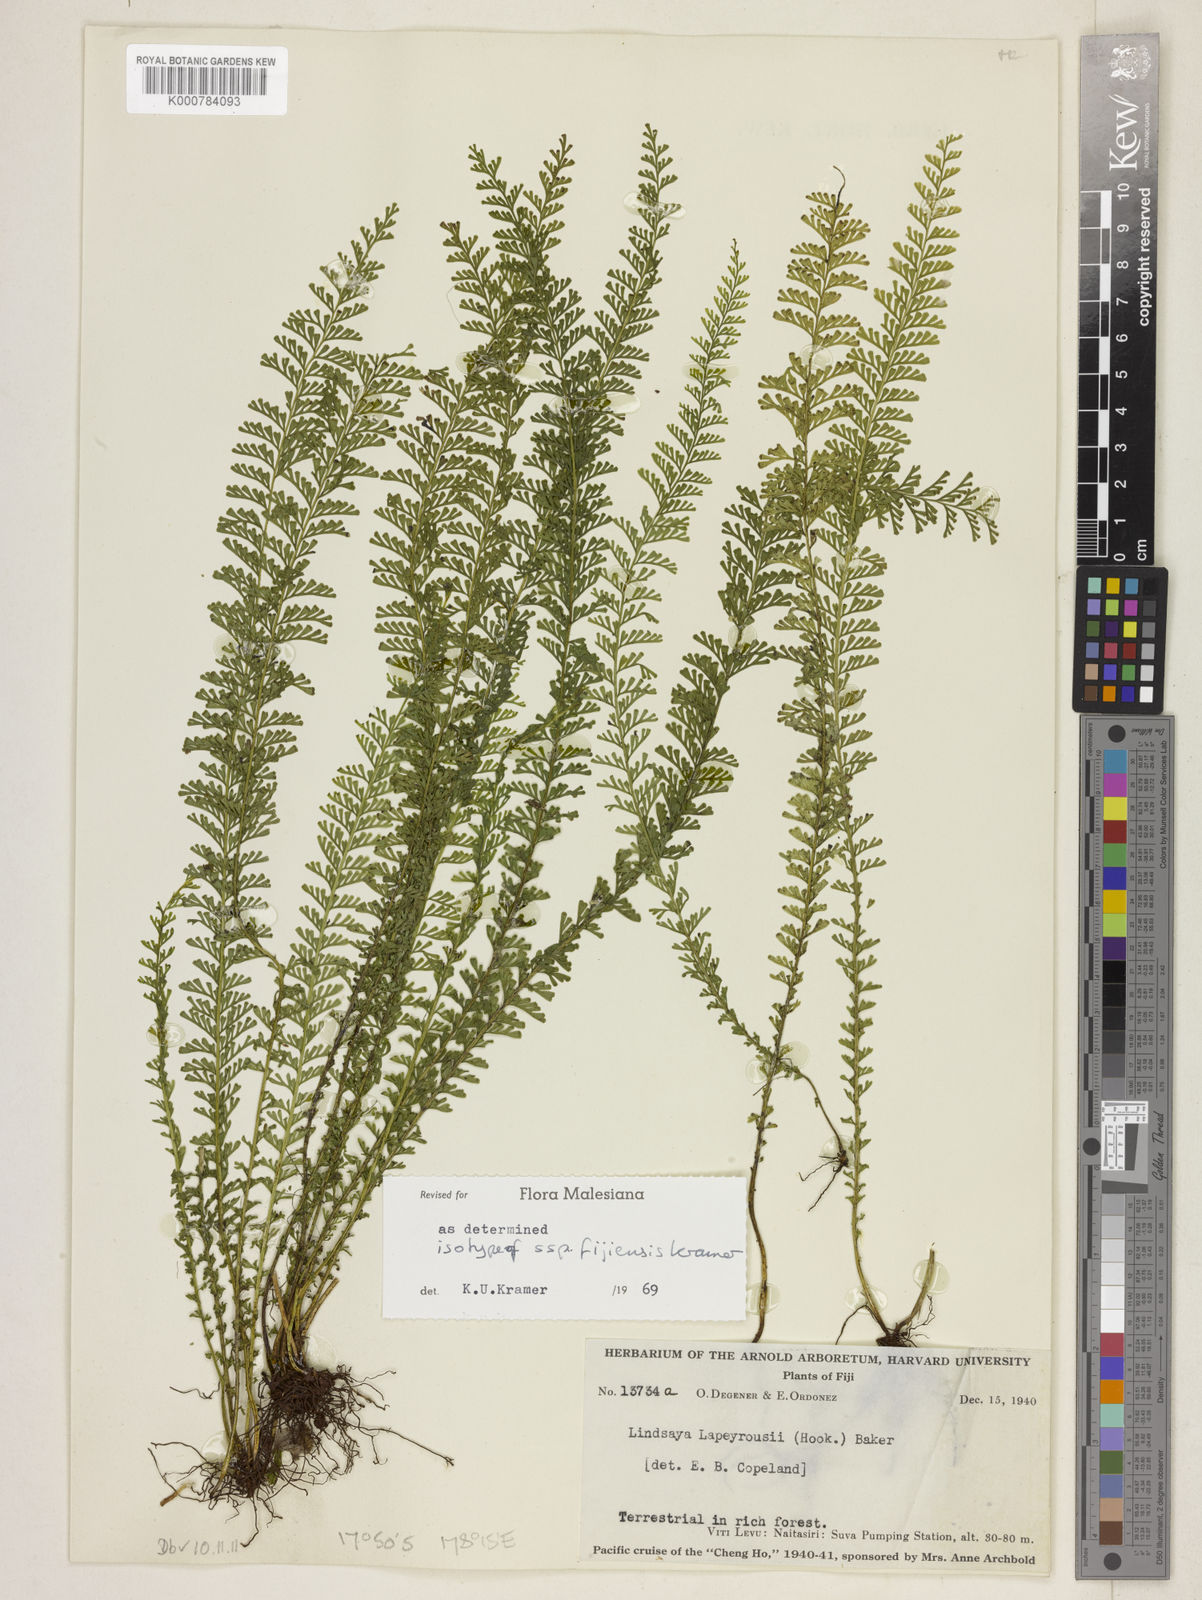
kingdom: Plantae
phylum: Tracheophyta
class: Polypodiopsida
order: Polypodiales
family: Lindsaeaceae
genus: Lindsaea
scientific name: Lindsaea lapeyrousei
